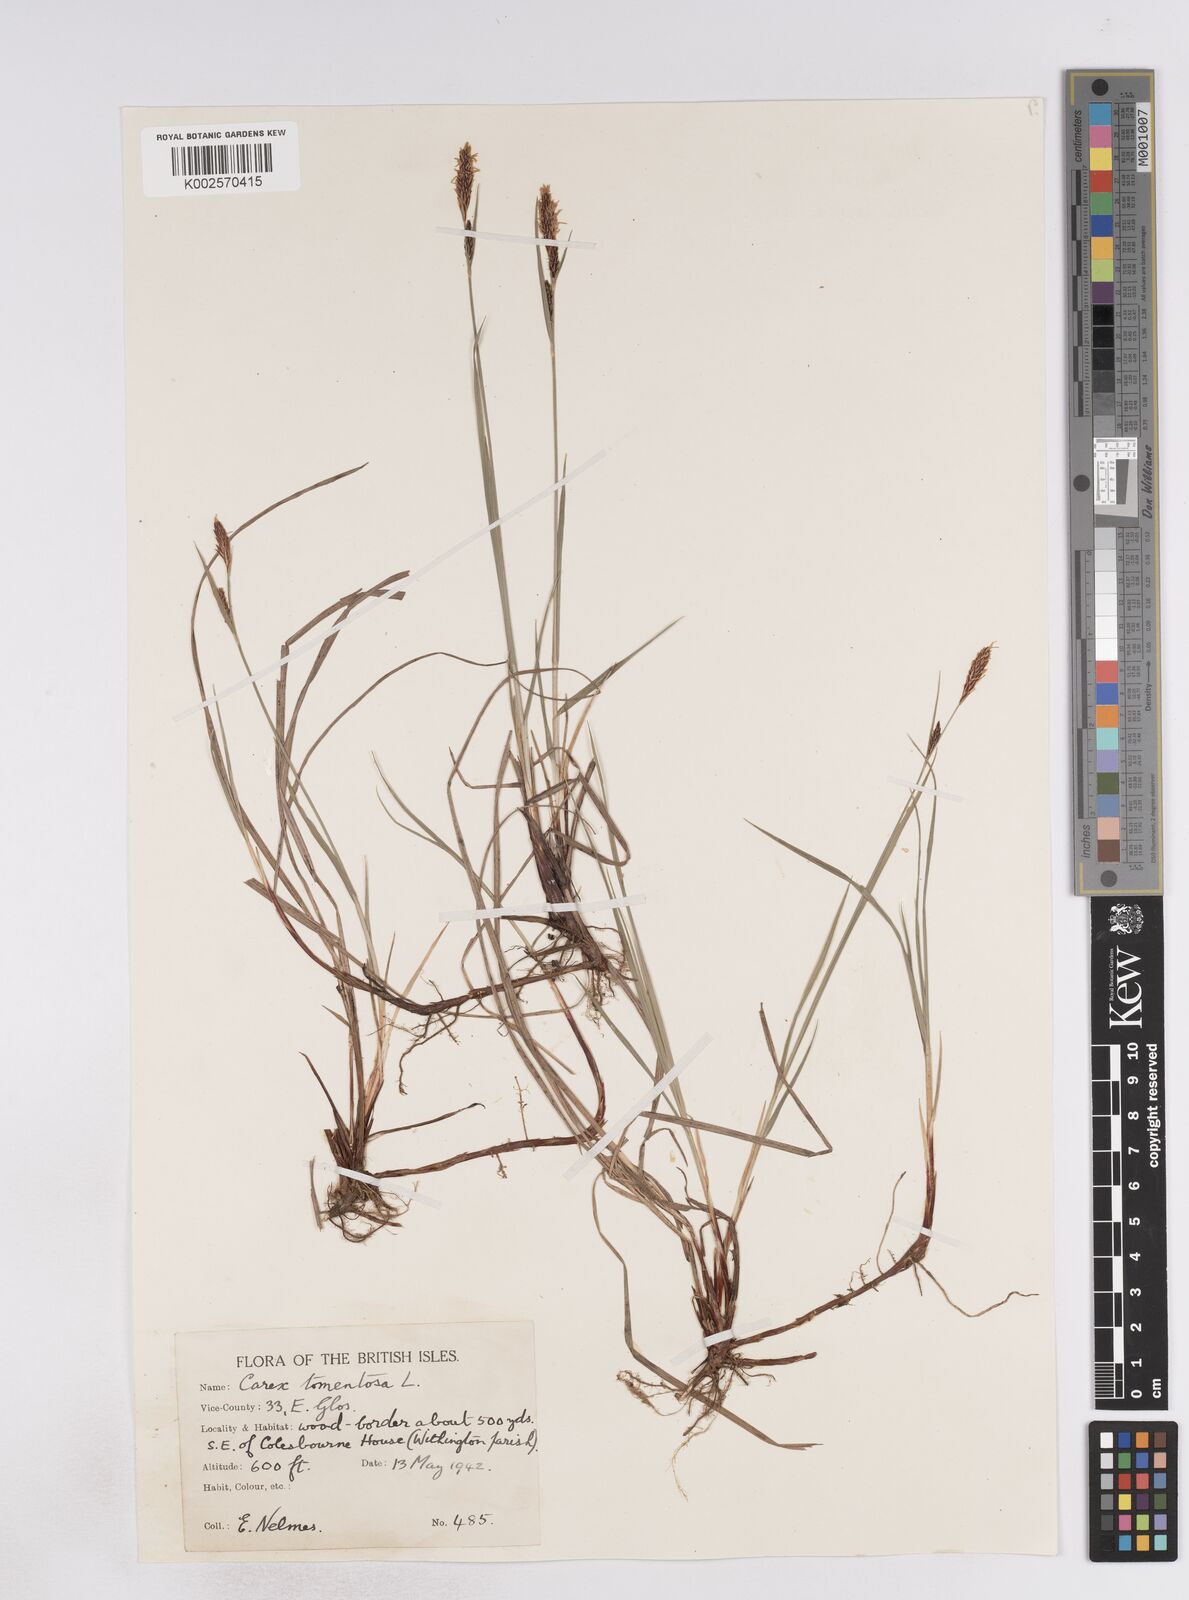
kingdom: Plantae
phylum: Tracheophyta
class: Liliopsida
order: Poales
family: Cyperaceae
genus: Carex
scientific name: Carex montana
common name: Soft-leaved sedge
